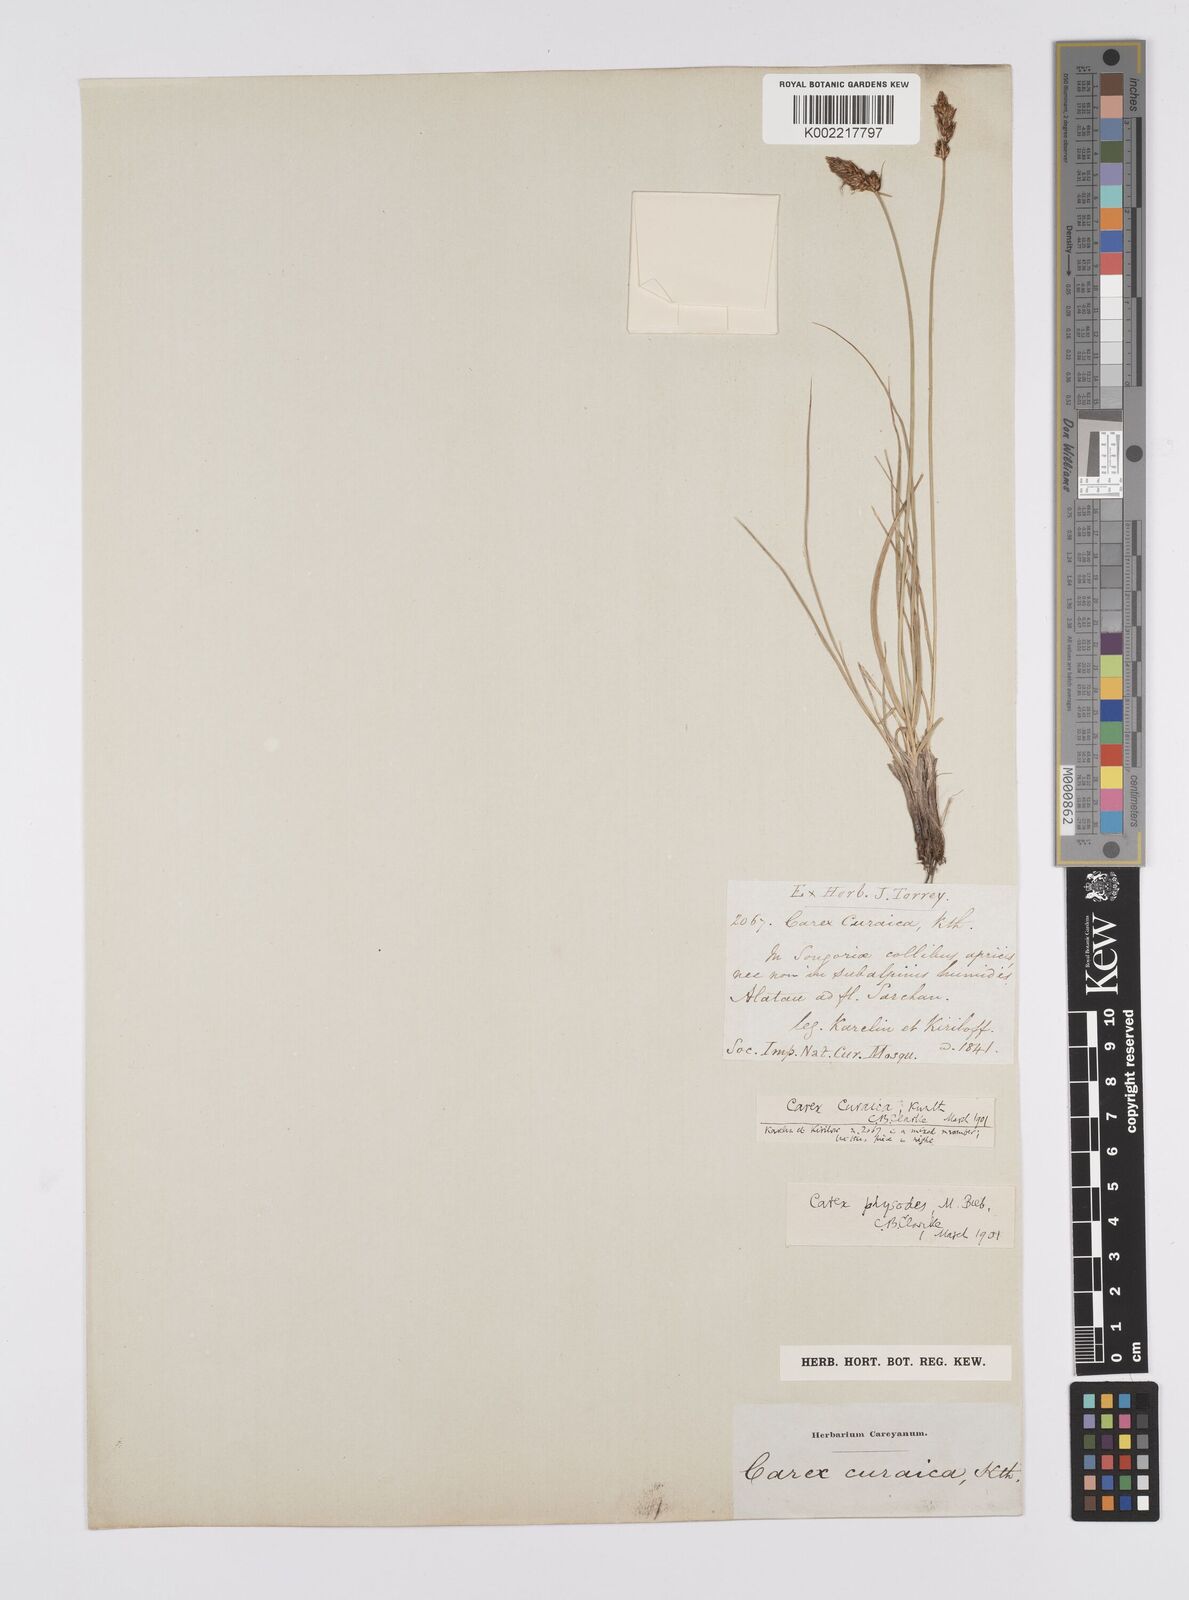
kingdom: Plantae
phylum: Tracheophyta
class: Liliopsida
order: Poales
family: Cyperaceae
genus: Carex
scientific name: Carex curaica
